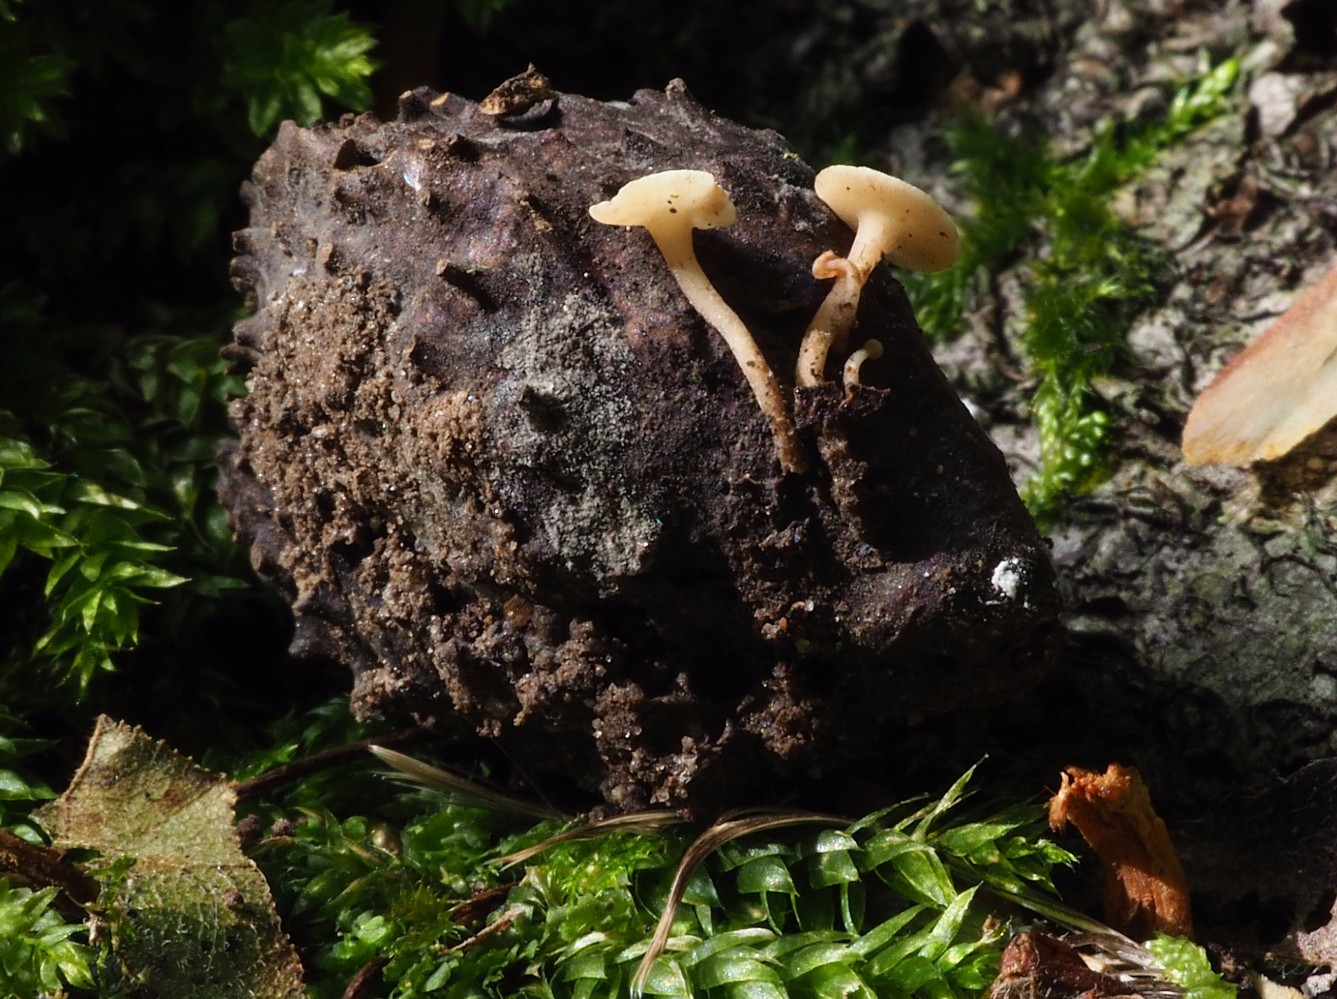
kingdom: Fungi
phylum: Ascomycota
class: Leotiomycetes
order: Helotiales
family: Helotiaceae
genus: Hymenoscyphus
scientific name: Hymenoscyphus
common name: stilkskive
